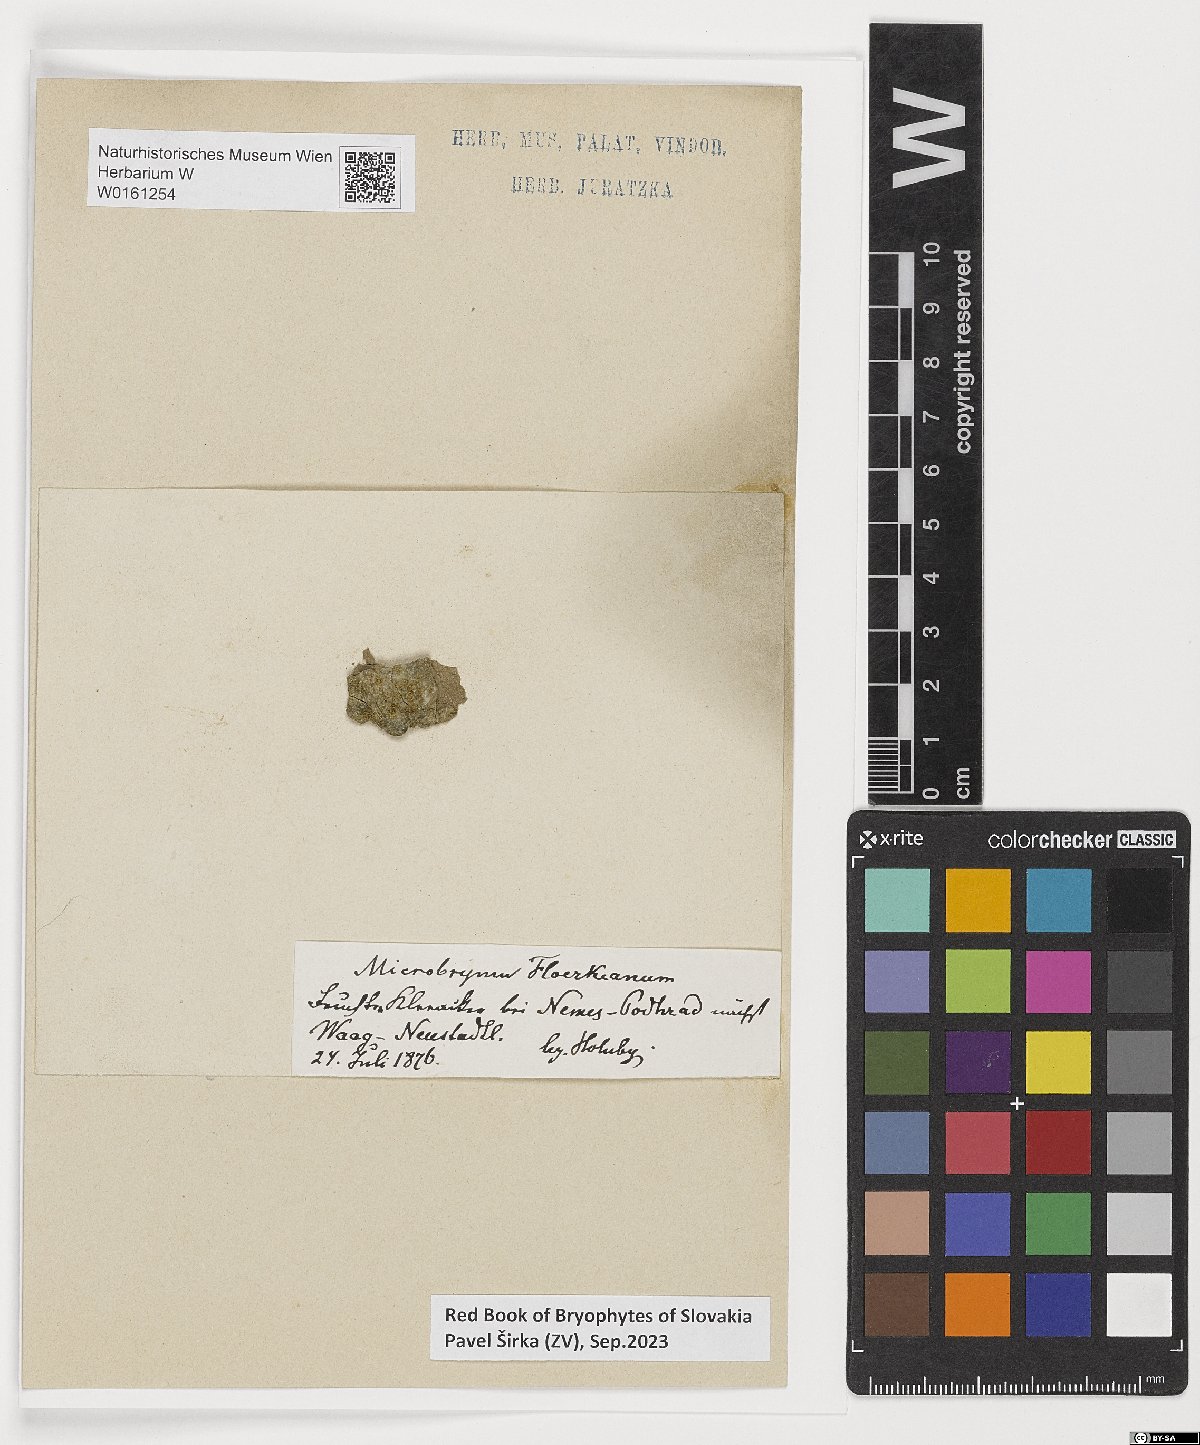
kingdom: Plantae
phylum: Bryophyta
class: Bryopsida
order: Pottiales
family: Pottiaceae
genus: Microbryum
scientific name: Microbryum floerkeanum
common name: Floerke's phascum
